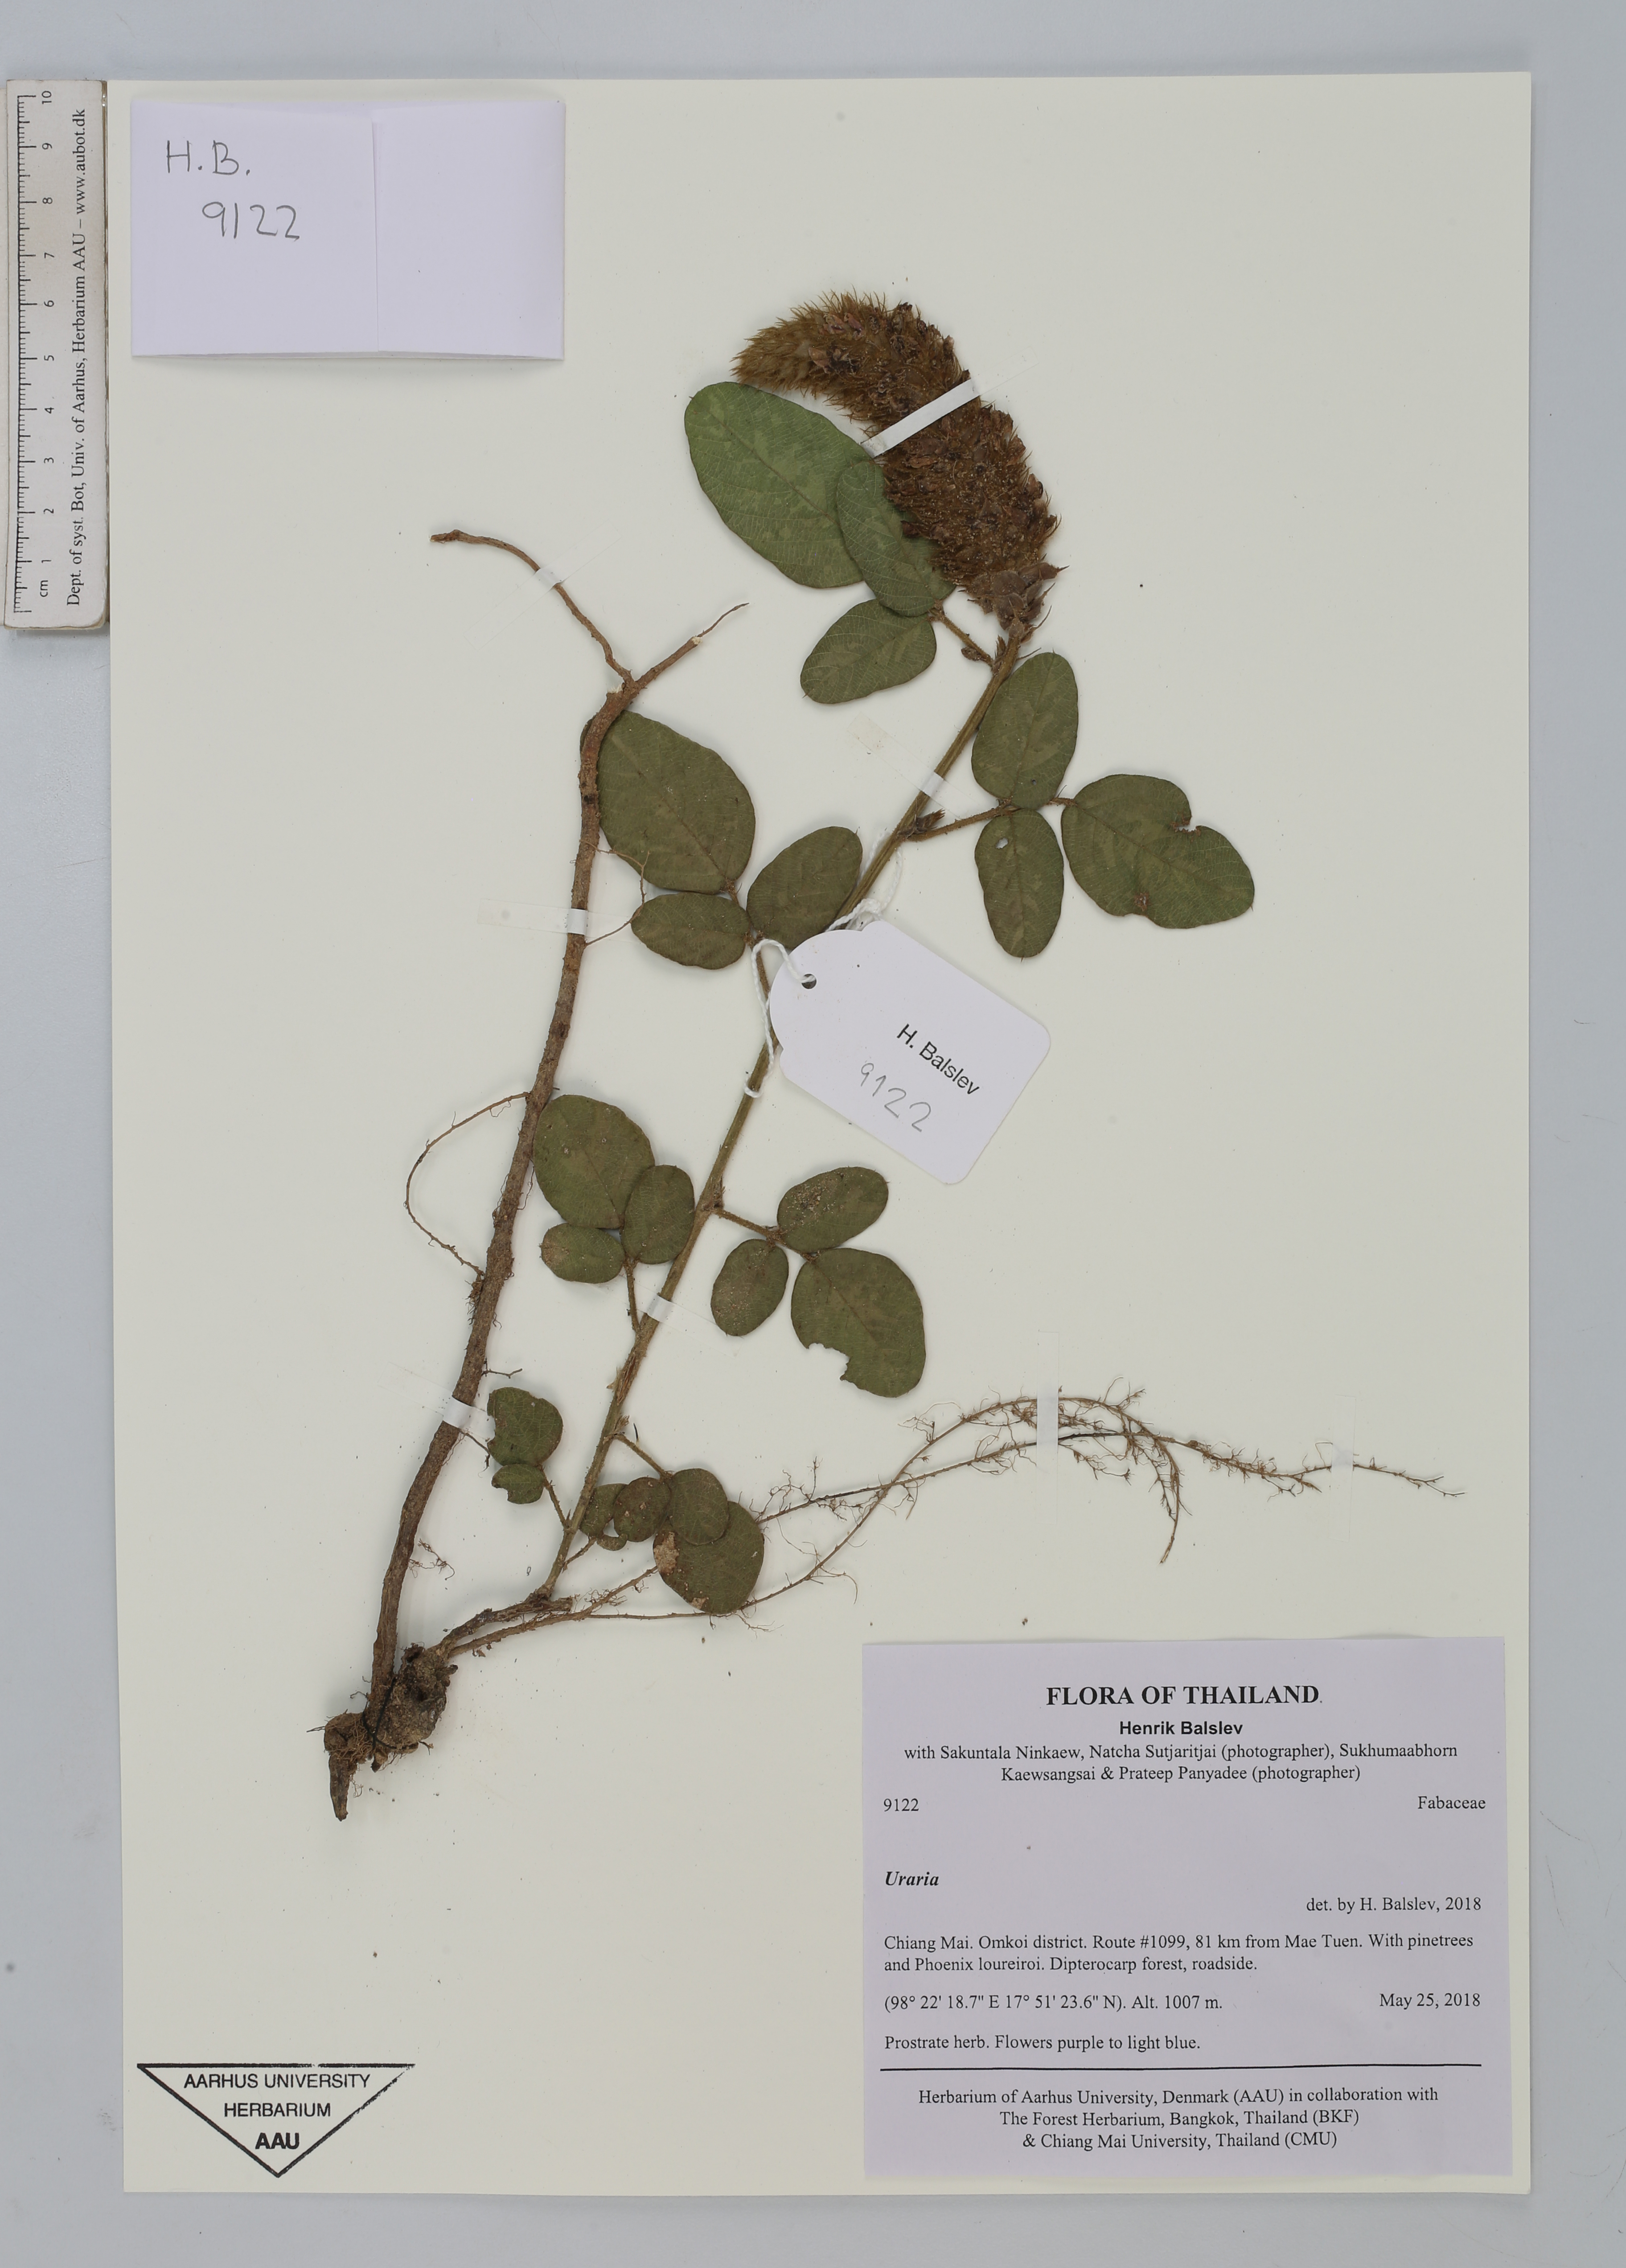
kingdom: Plantae
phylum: Tracheophyta
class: Magnoliopsida
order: Fabales
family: Fabaceae
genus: Uraria
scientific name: Uraria
